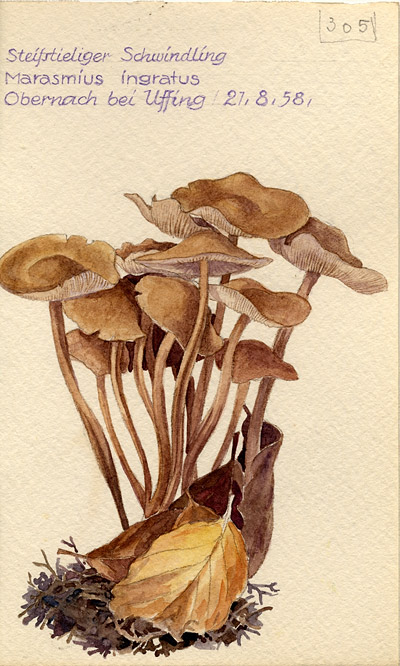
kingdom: Fungi
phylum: Basidiomycota
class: Agaricomycetes
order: Agaricales
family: Omphalotaceae
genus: Collybiopsis
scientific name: Collybiopsis confluens
